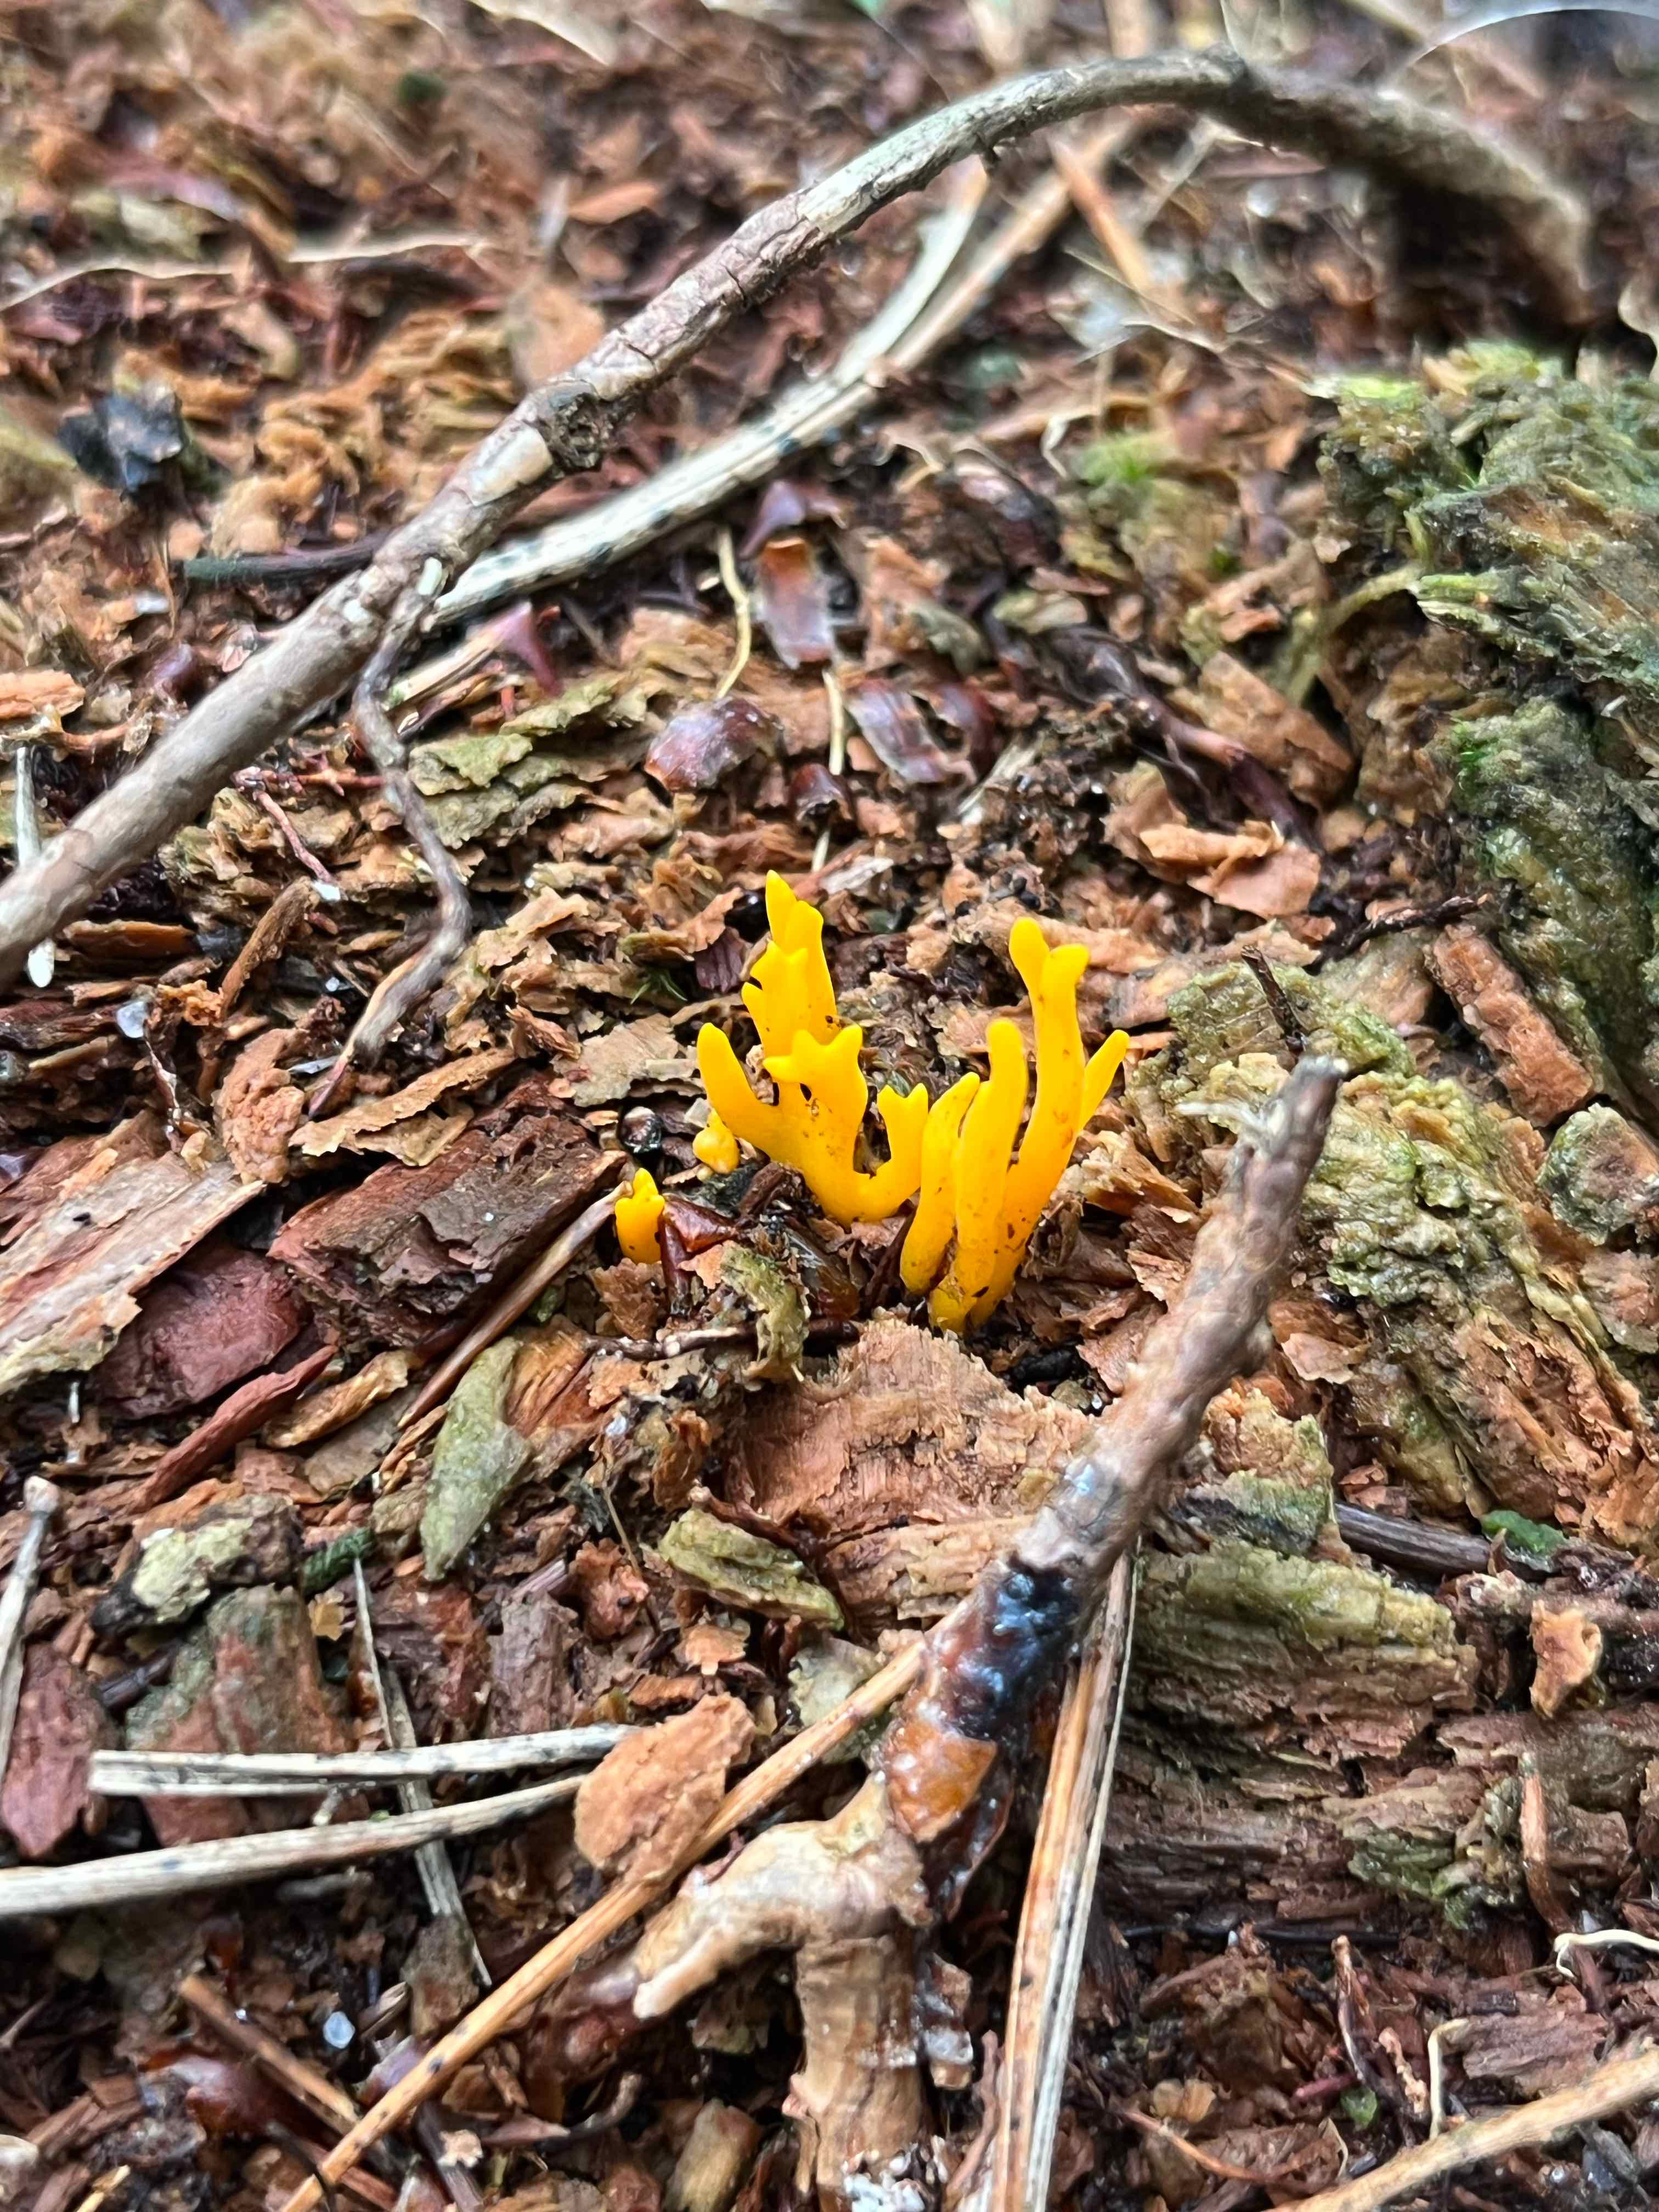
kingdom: Fungi
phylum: Basidiomycota
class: Dacrymycetes
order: Dacrymycetales
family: Dacrymycetaceae
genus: Calocera
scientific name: Calocera viscosa
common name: almindelig guldgaffel
